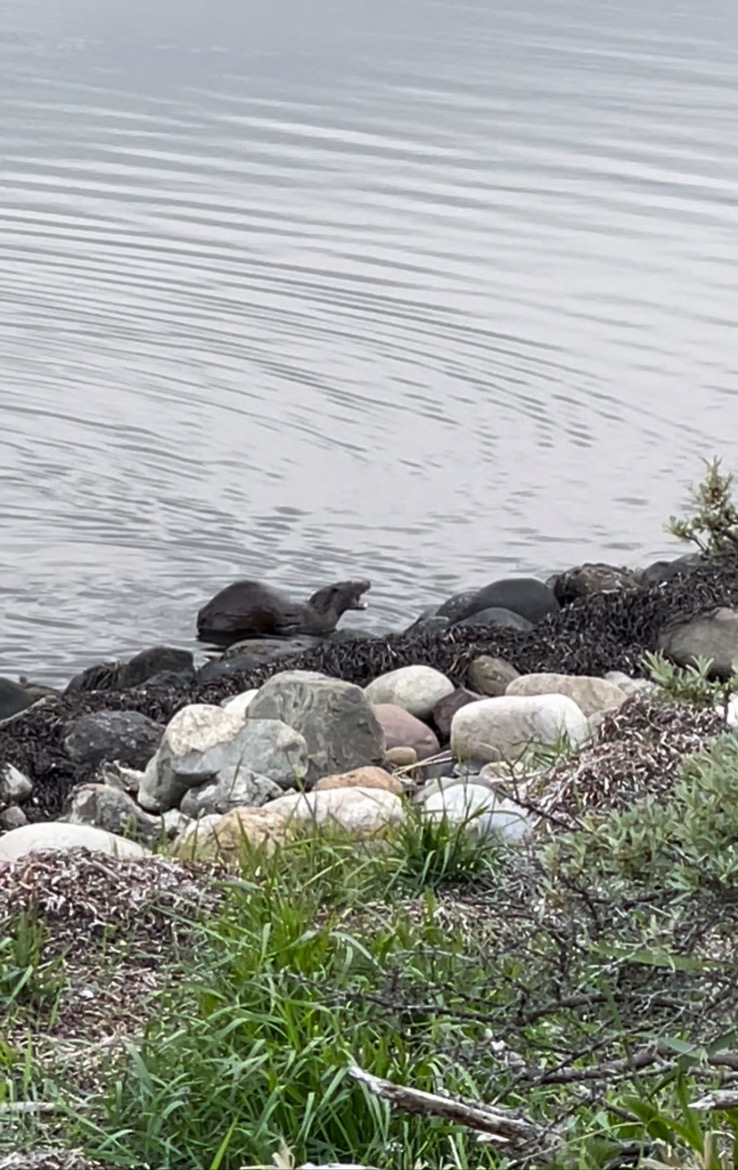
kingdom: Animalia
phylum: Chordata
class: Mammalia
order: Carnivora
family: Mustelidae
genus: Lutra
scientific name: Lutra lutra
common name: Odder
